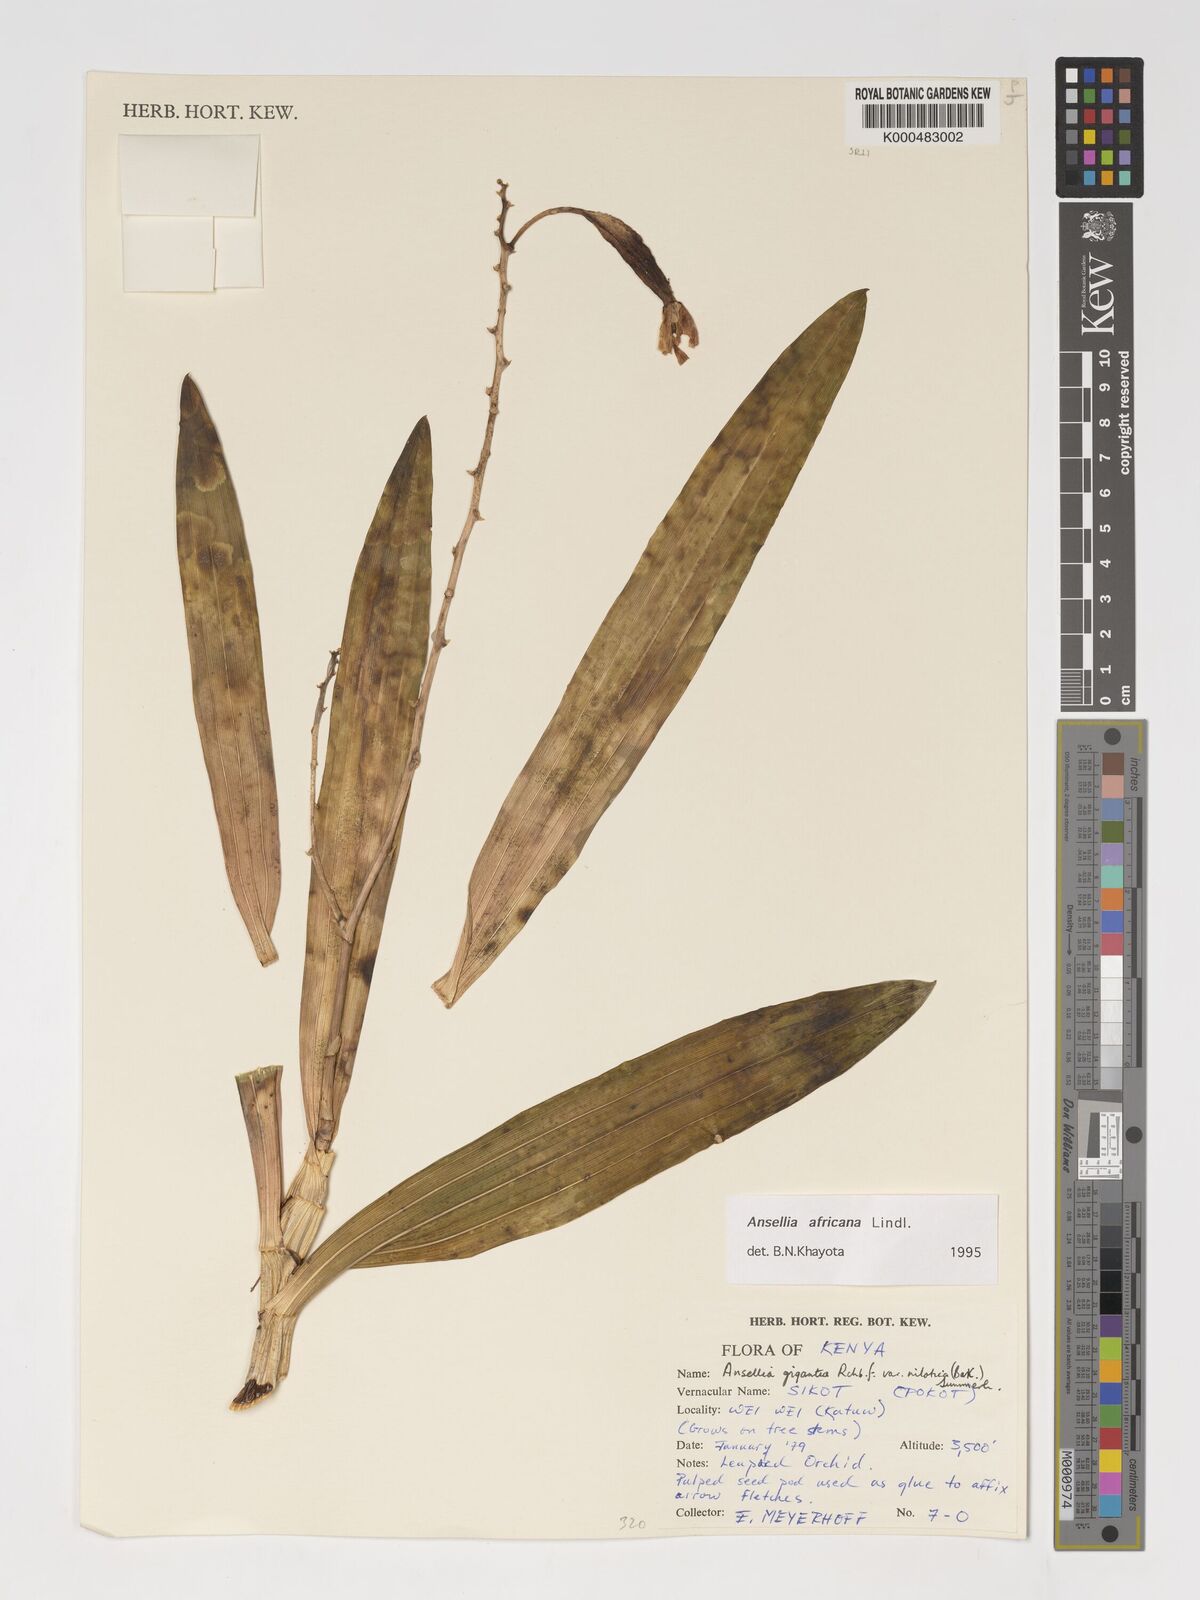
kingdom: Plantae
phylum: Tracheophyta
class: Liliopsida
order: Asparagales
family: Orchidaceae
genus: Ansellia
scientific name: Ansellia africana
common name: African ansellia
